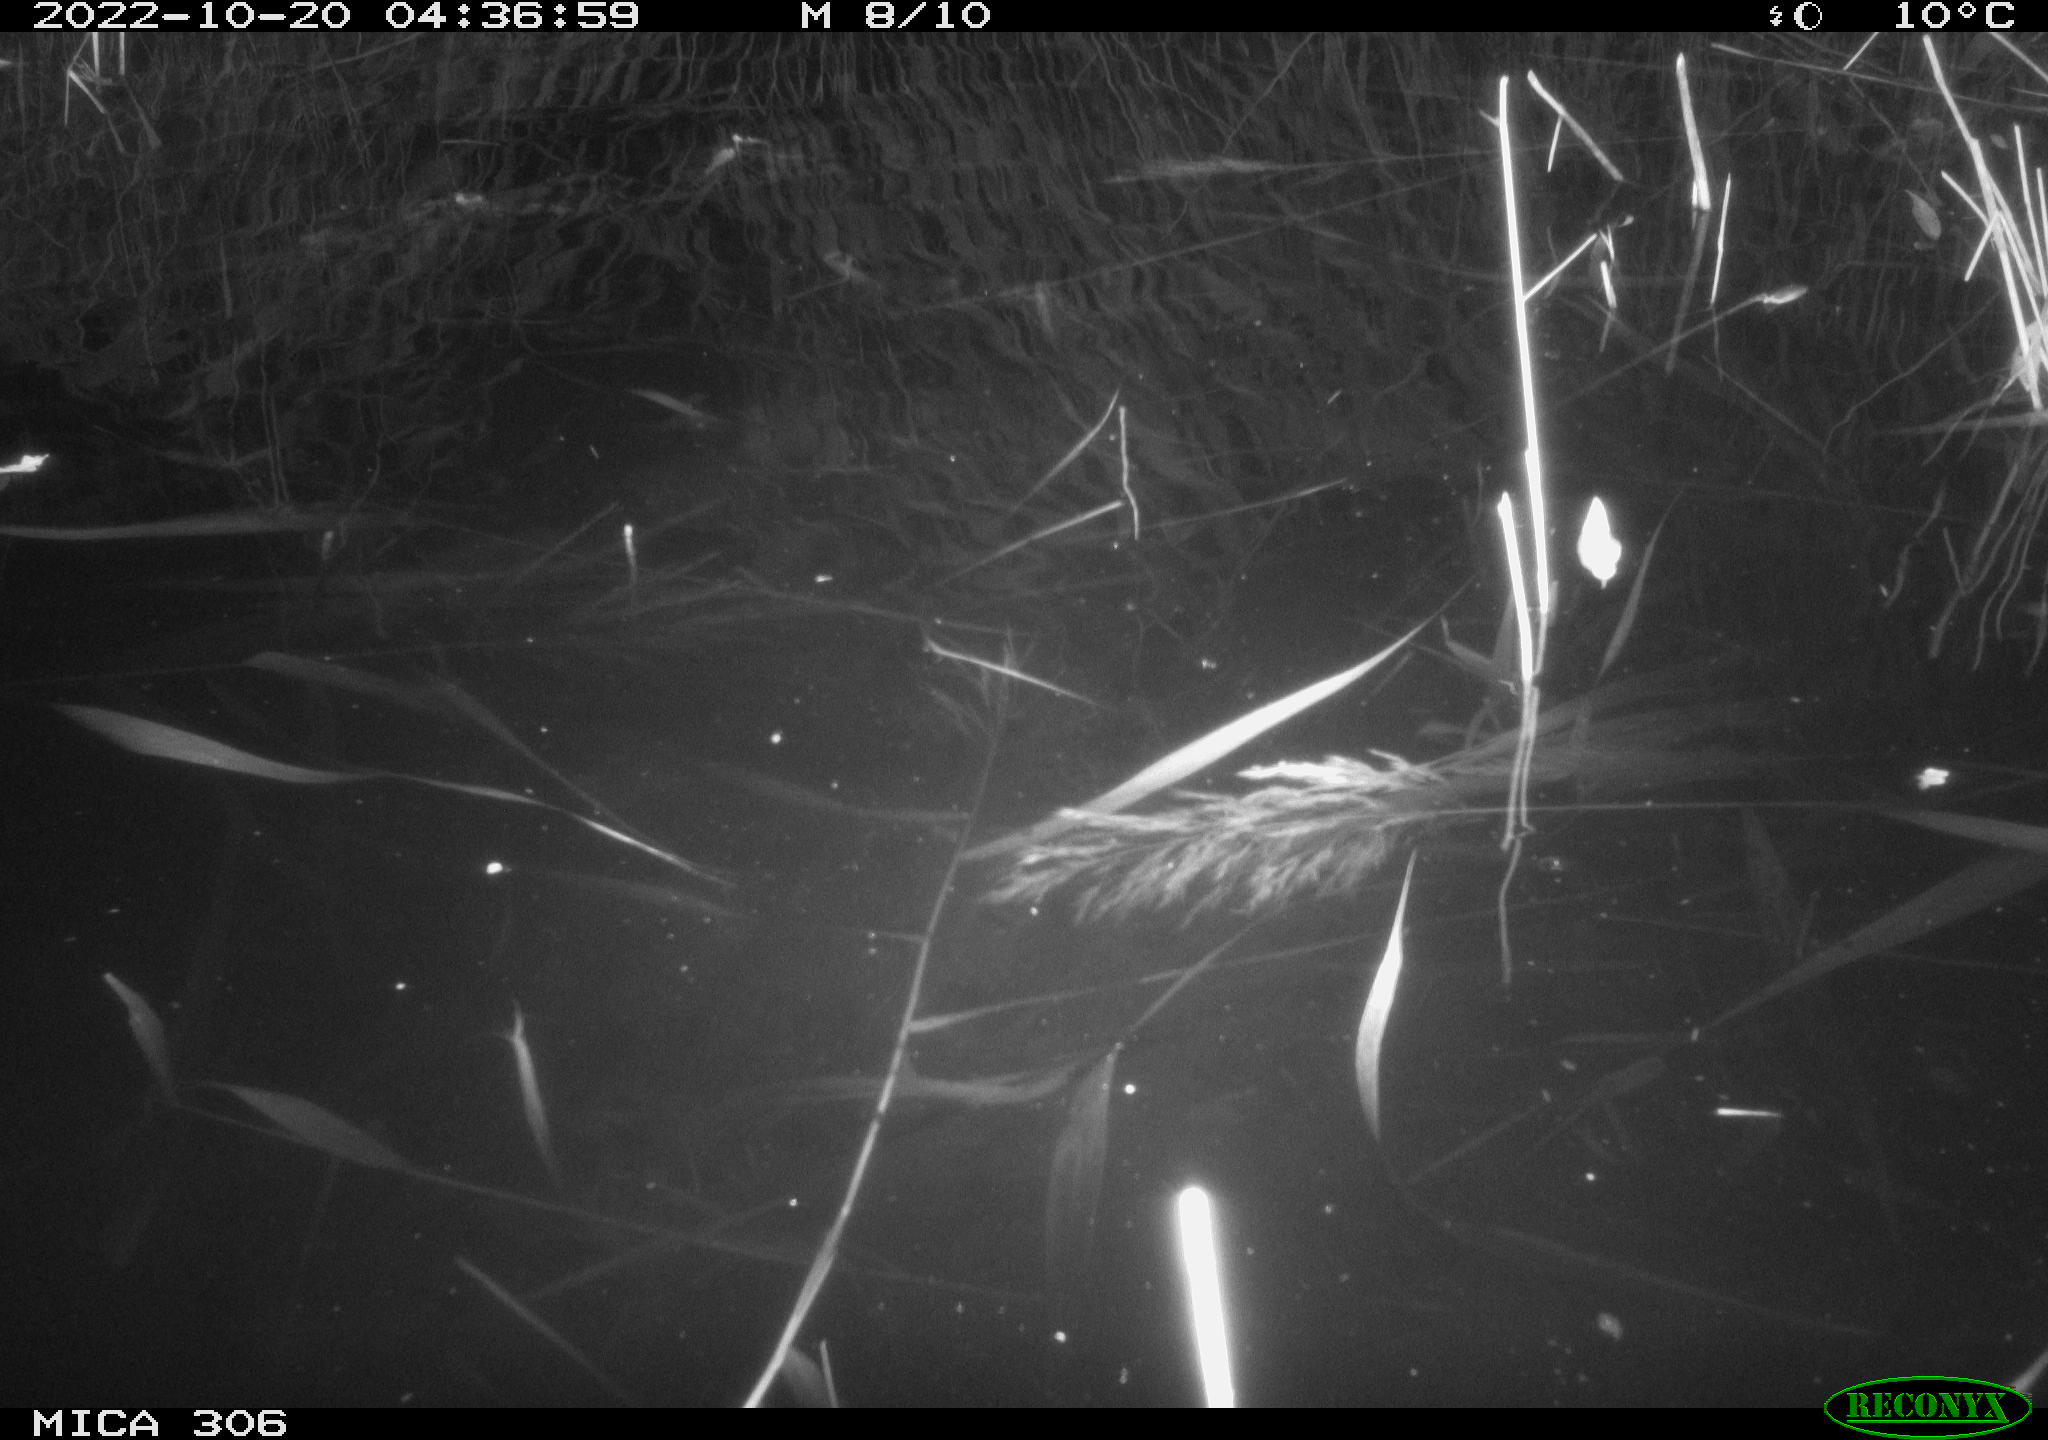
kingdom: Animalia
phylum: Chordata
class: Mammalia
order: Rodentia
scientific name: Rodentia
